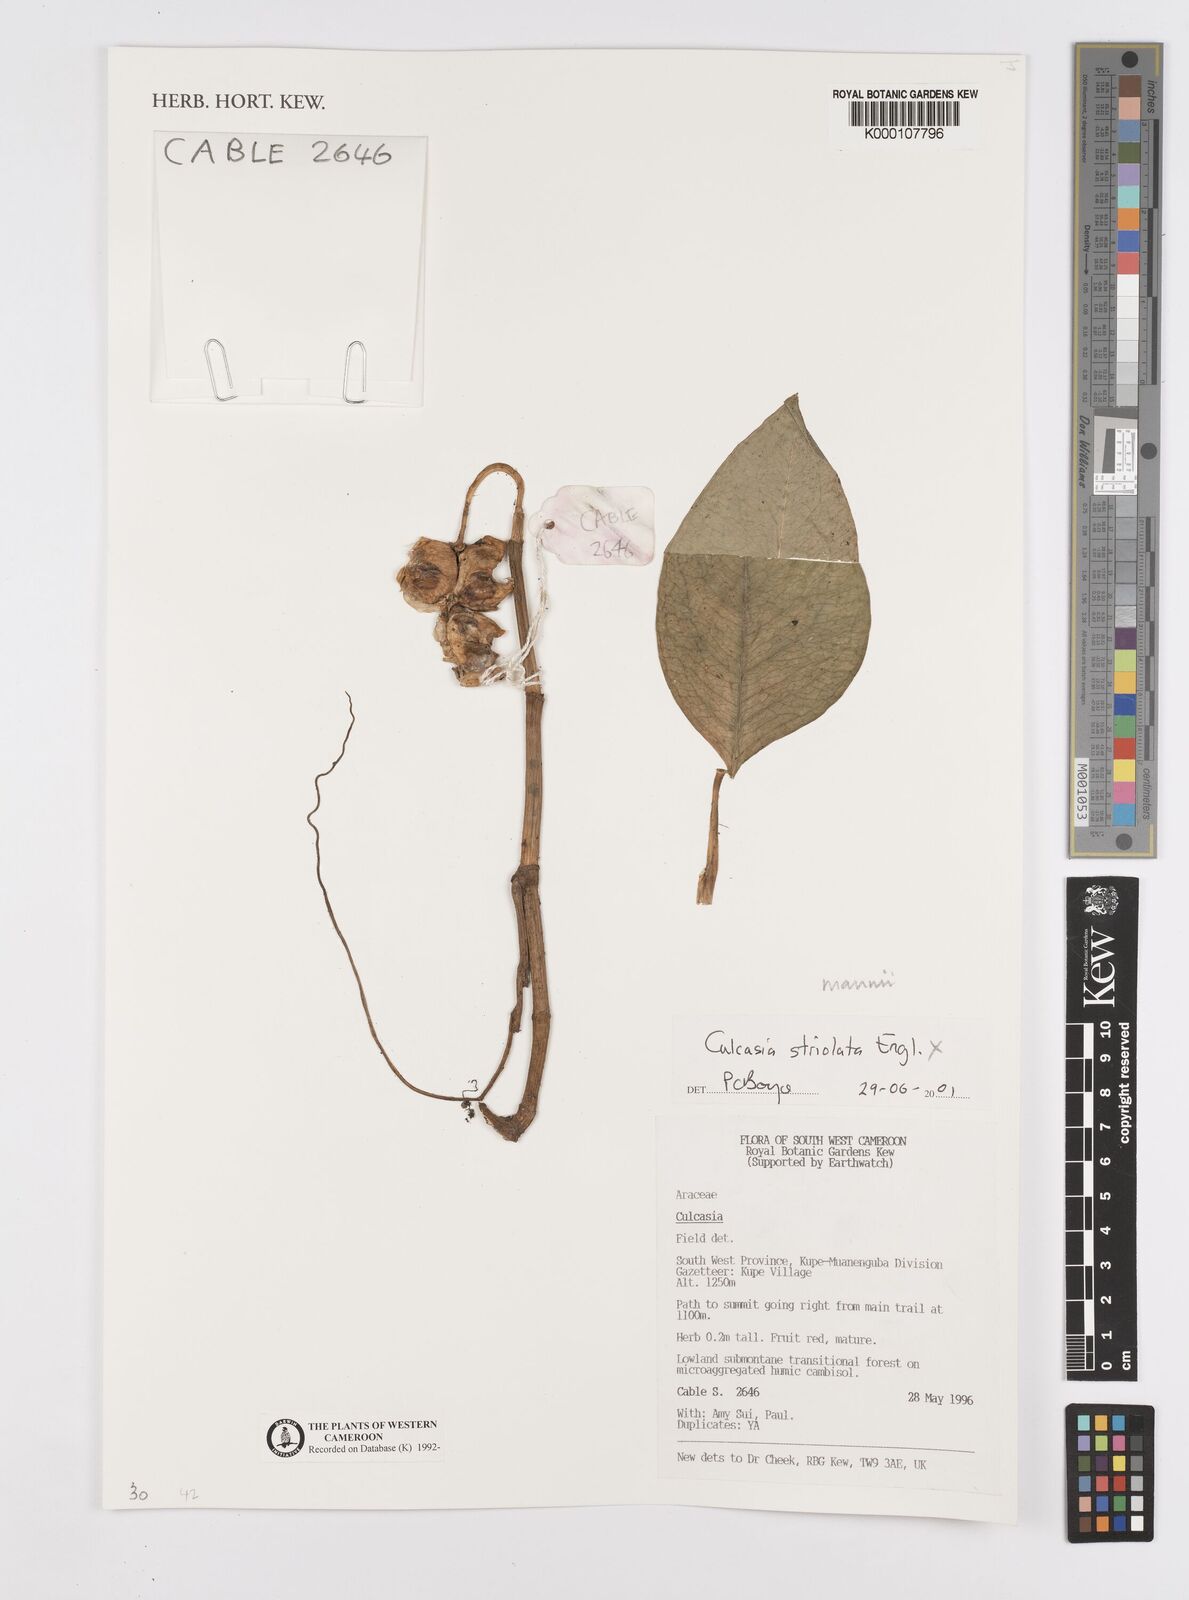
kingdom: Plantae
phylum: Tracheophyta
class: Liliopsida
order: Alismatales
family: Araceae
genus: Culcasia
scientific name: Culcasia striolata
